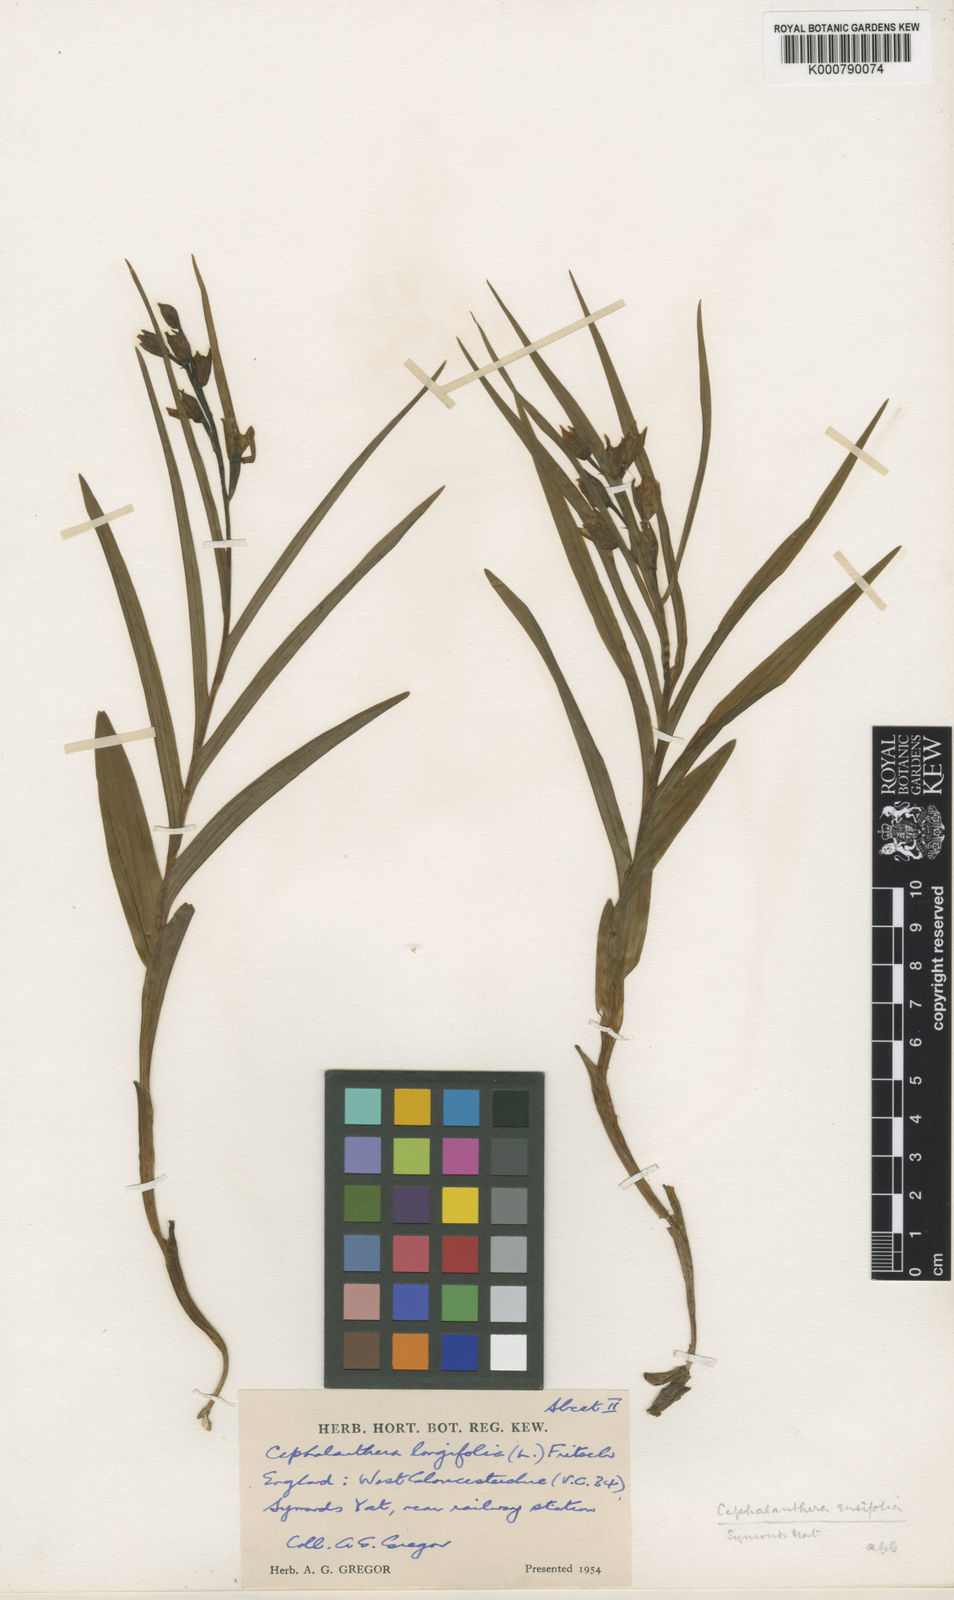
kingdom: Plantae
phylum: Tracheophyta
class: Liliopsida
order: Asparagales
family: Orchidaceae
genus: Cephalanthera
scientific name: Cephalanthera longifolia
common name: Narrow-leaved helleborine
